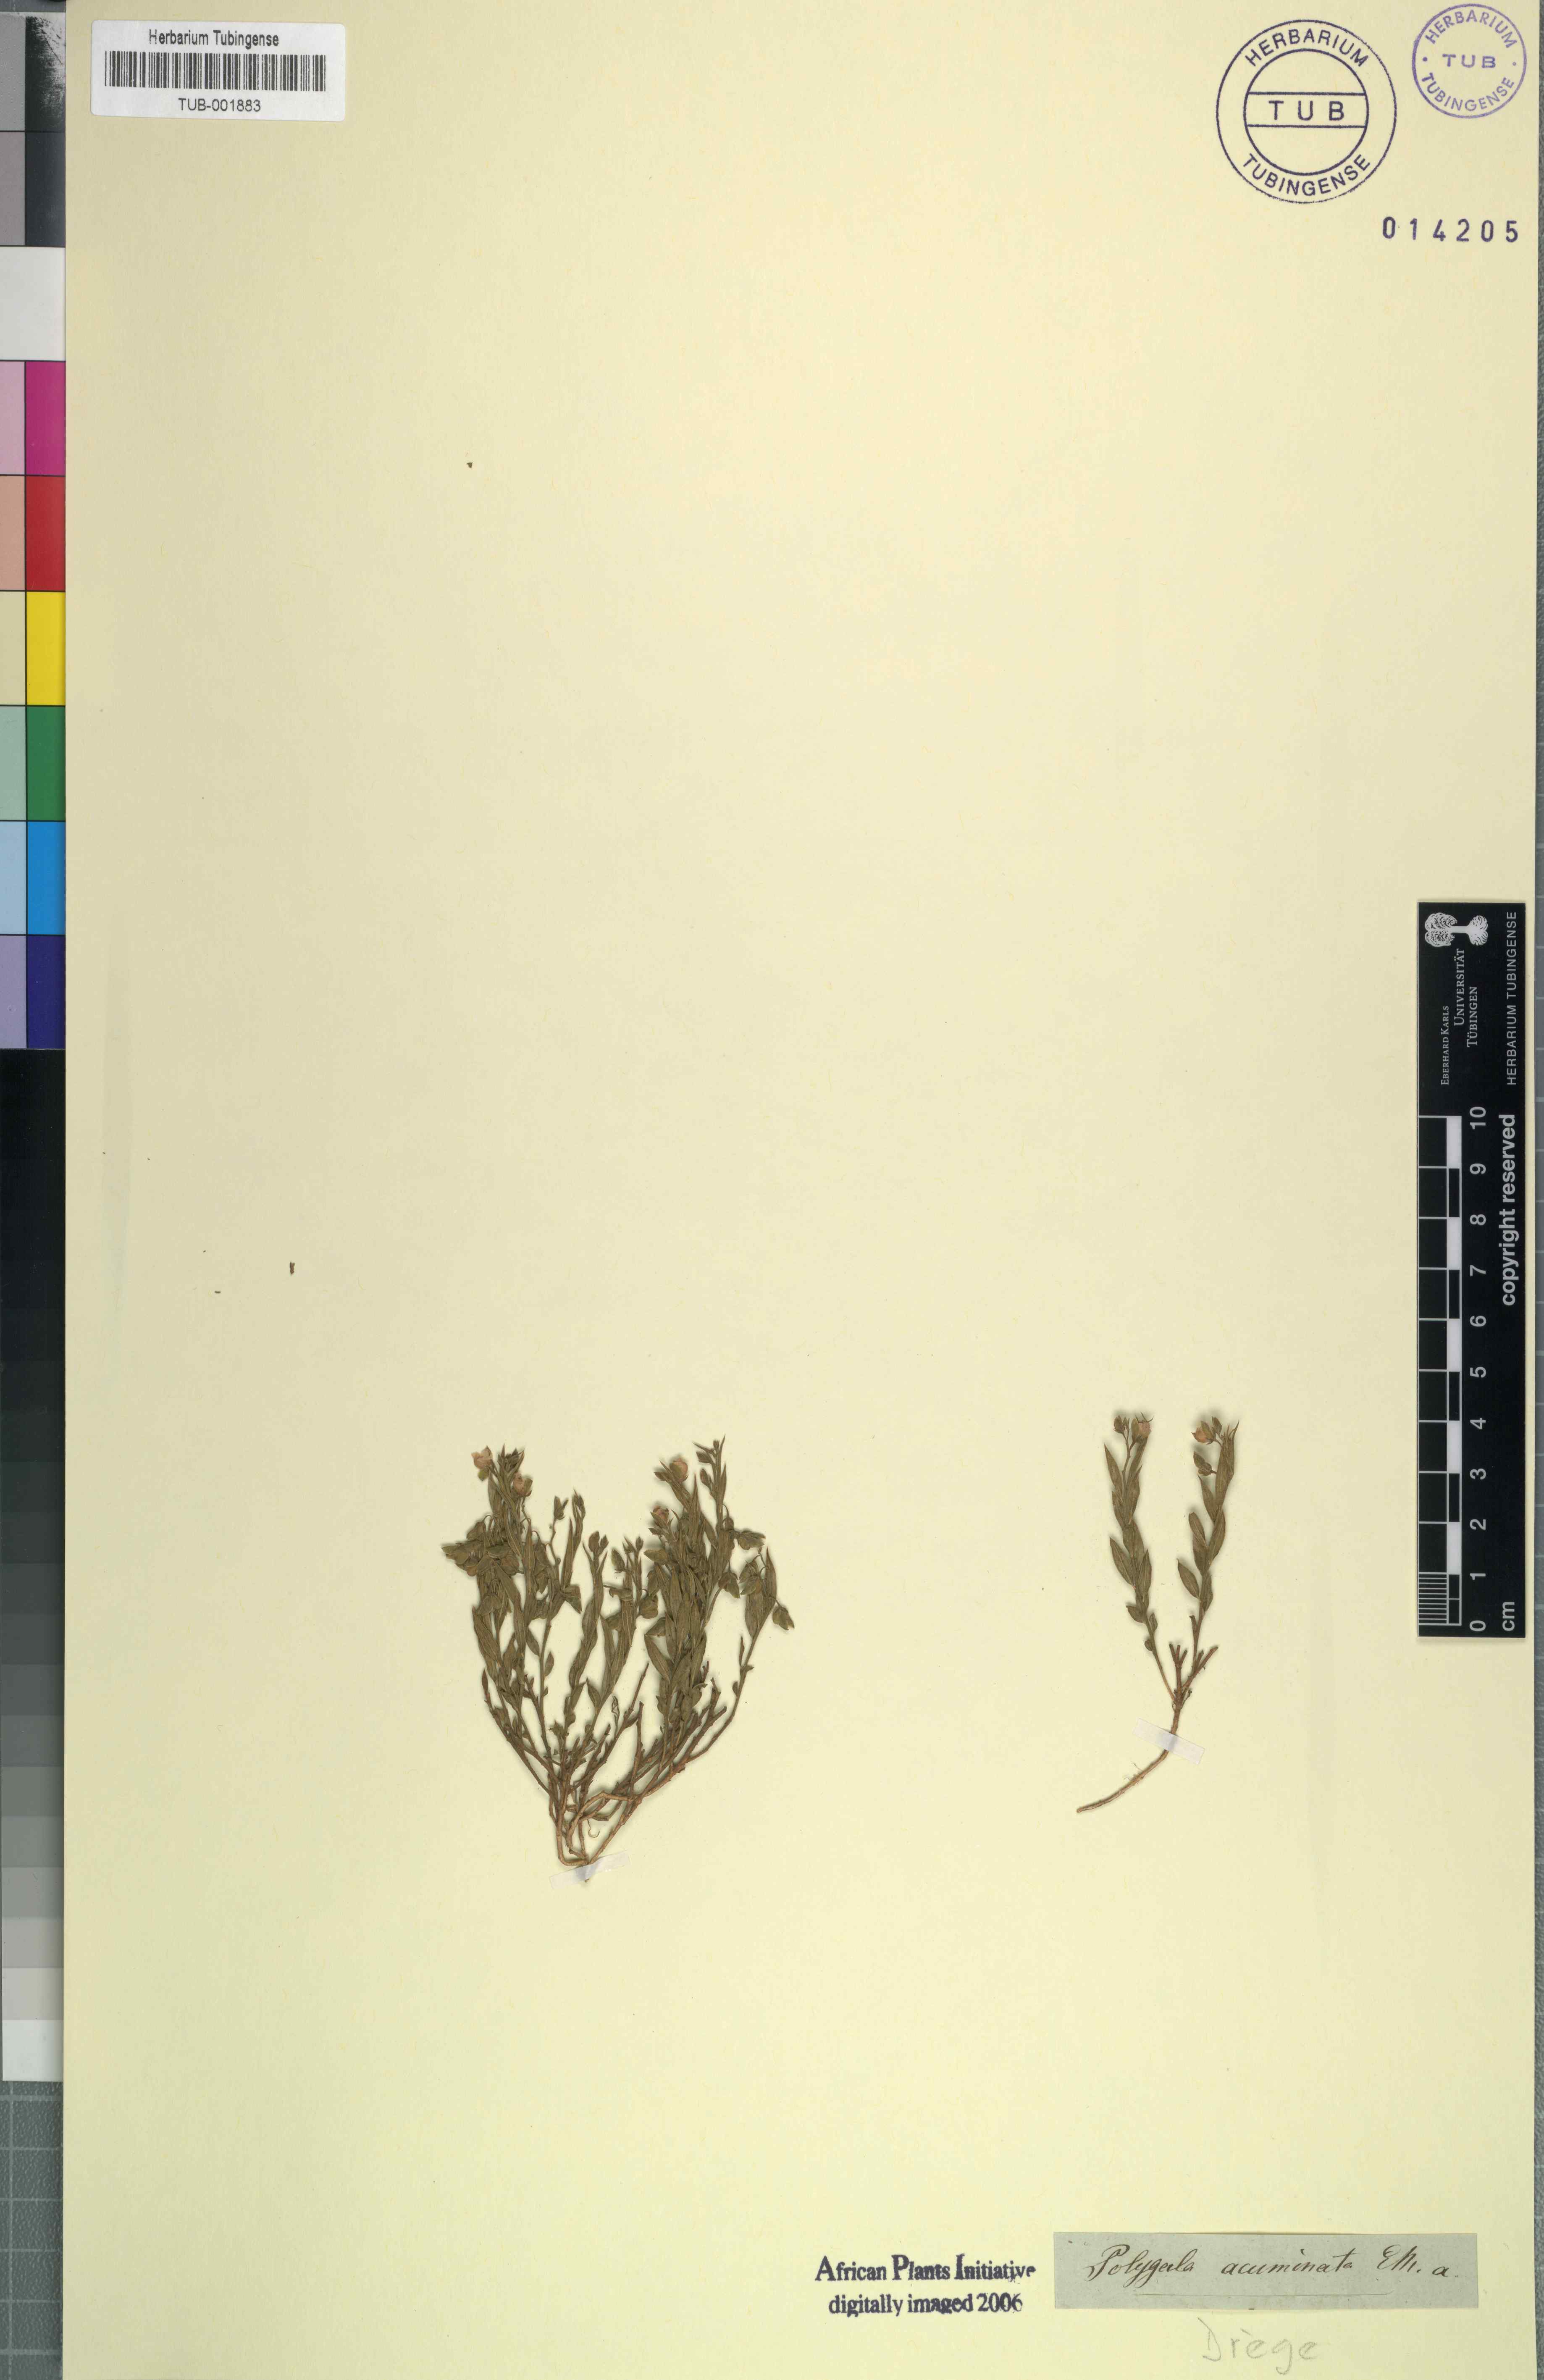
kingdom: Plantae
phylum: Tracheophyta
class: Magnoliopsida
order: Fabales
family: Polygalaceae
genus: Polygala
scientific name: Polygala amatymbica
